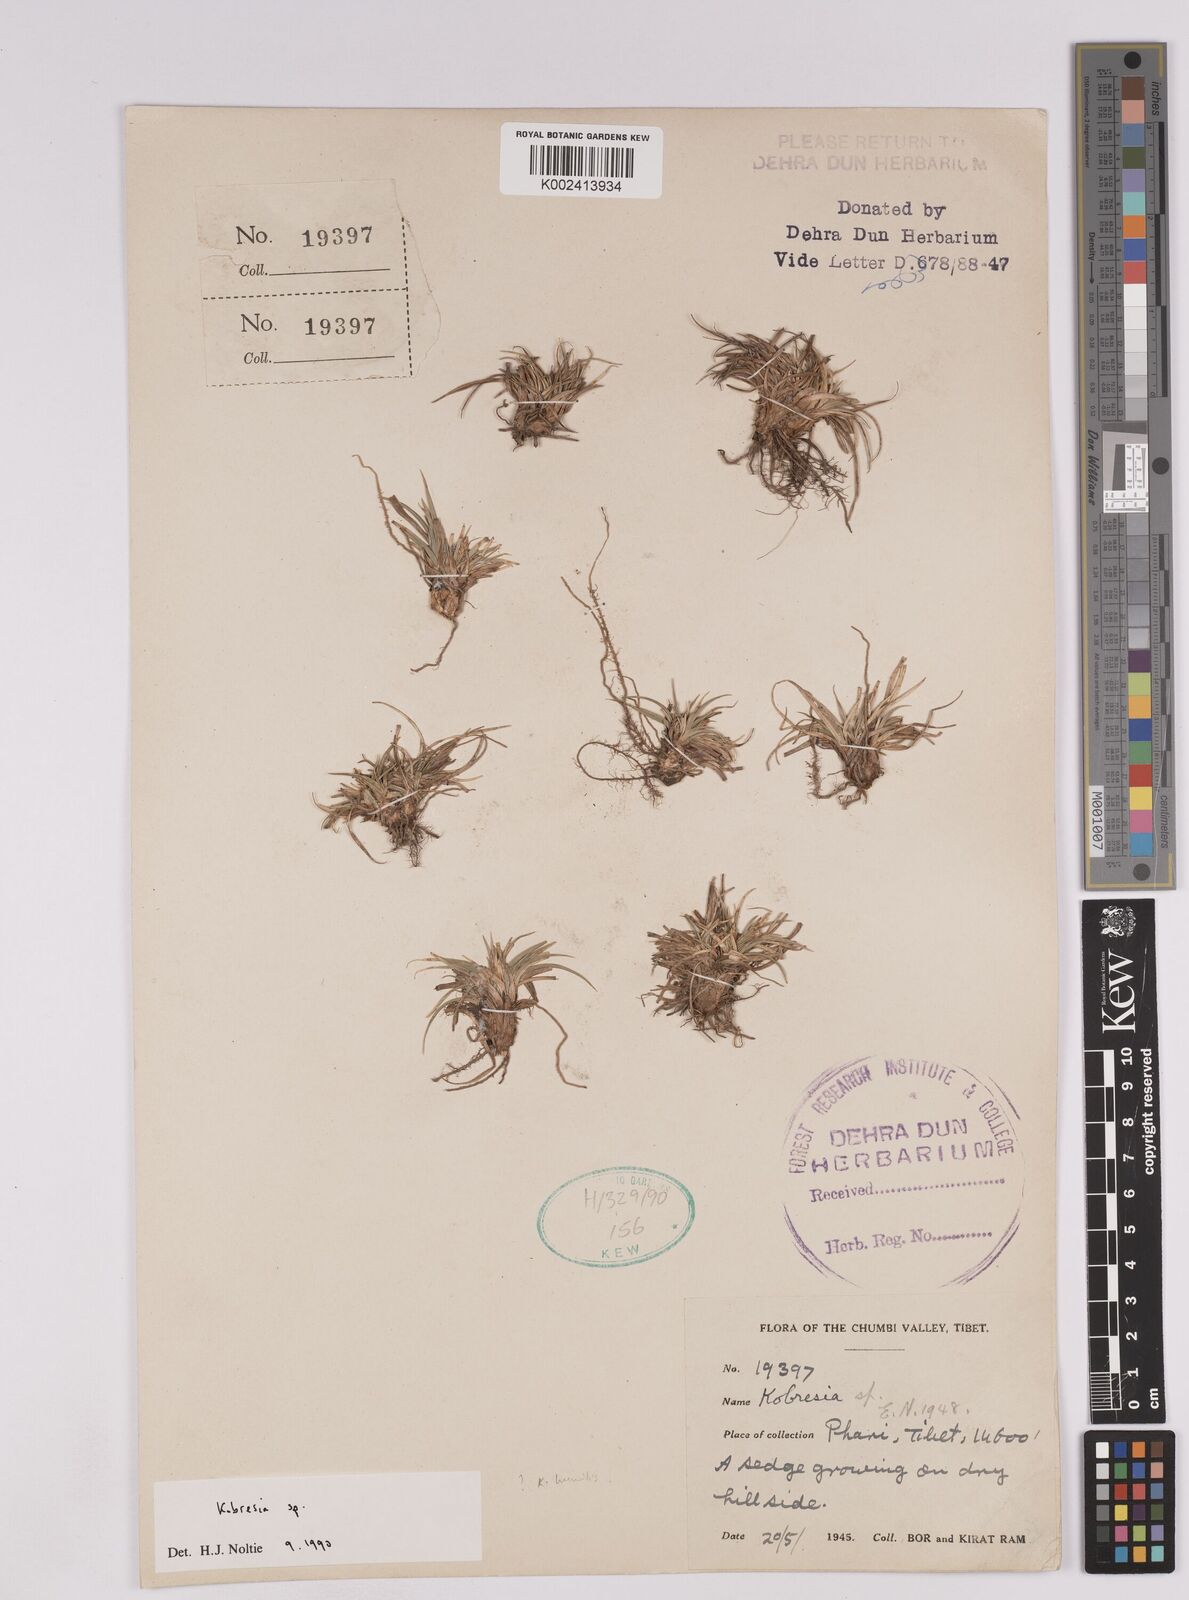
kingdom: Plantae
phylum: Tracheophyta
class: Liliopsida
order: Poales
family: Cyperaceae
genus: Carex
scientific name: Carex
